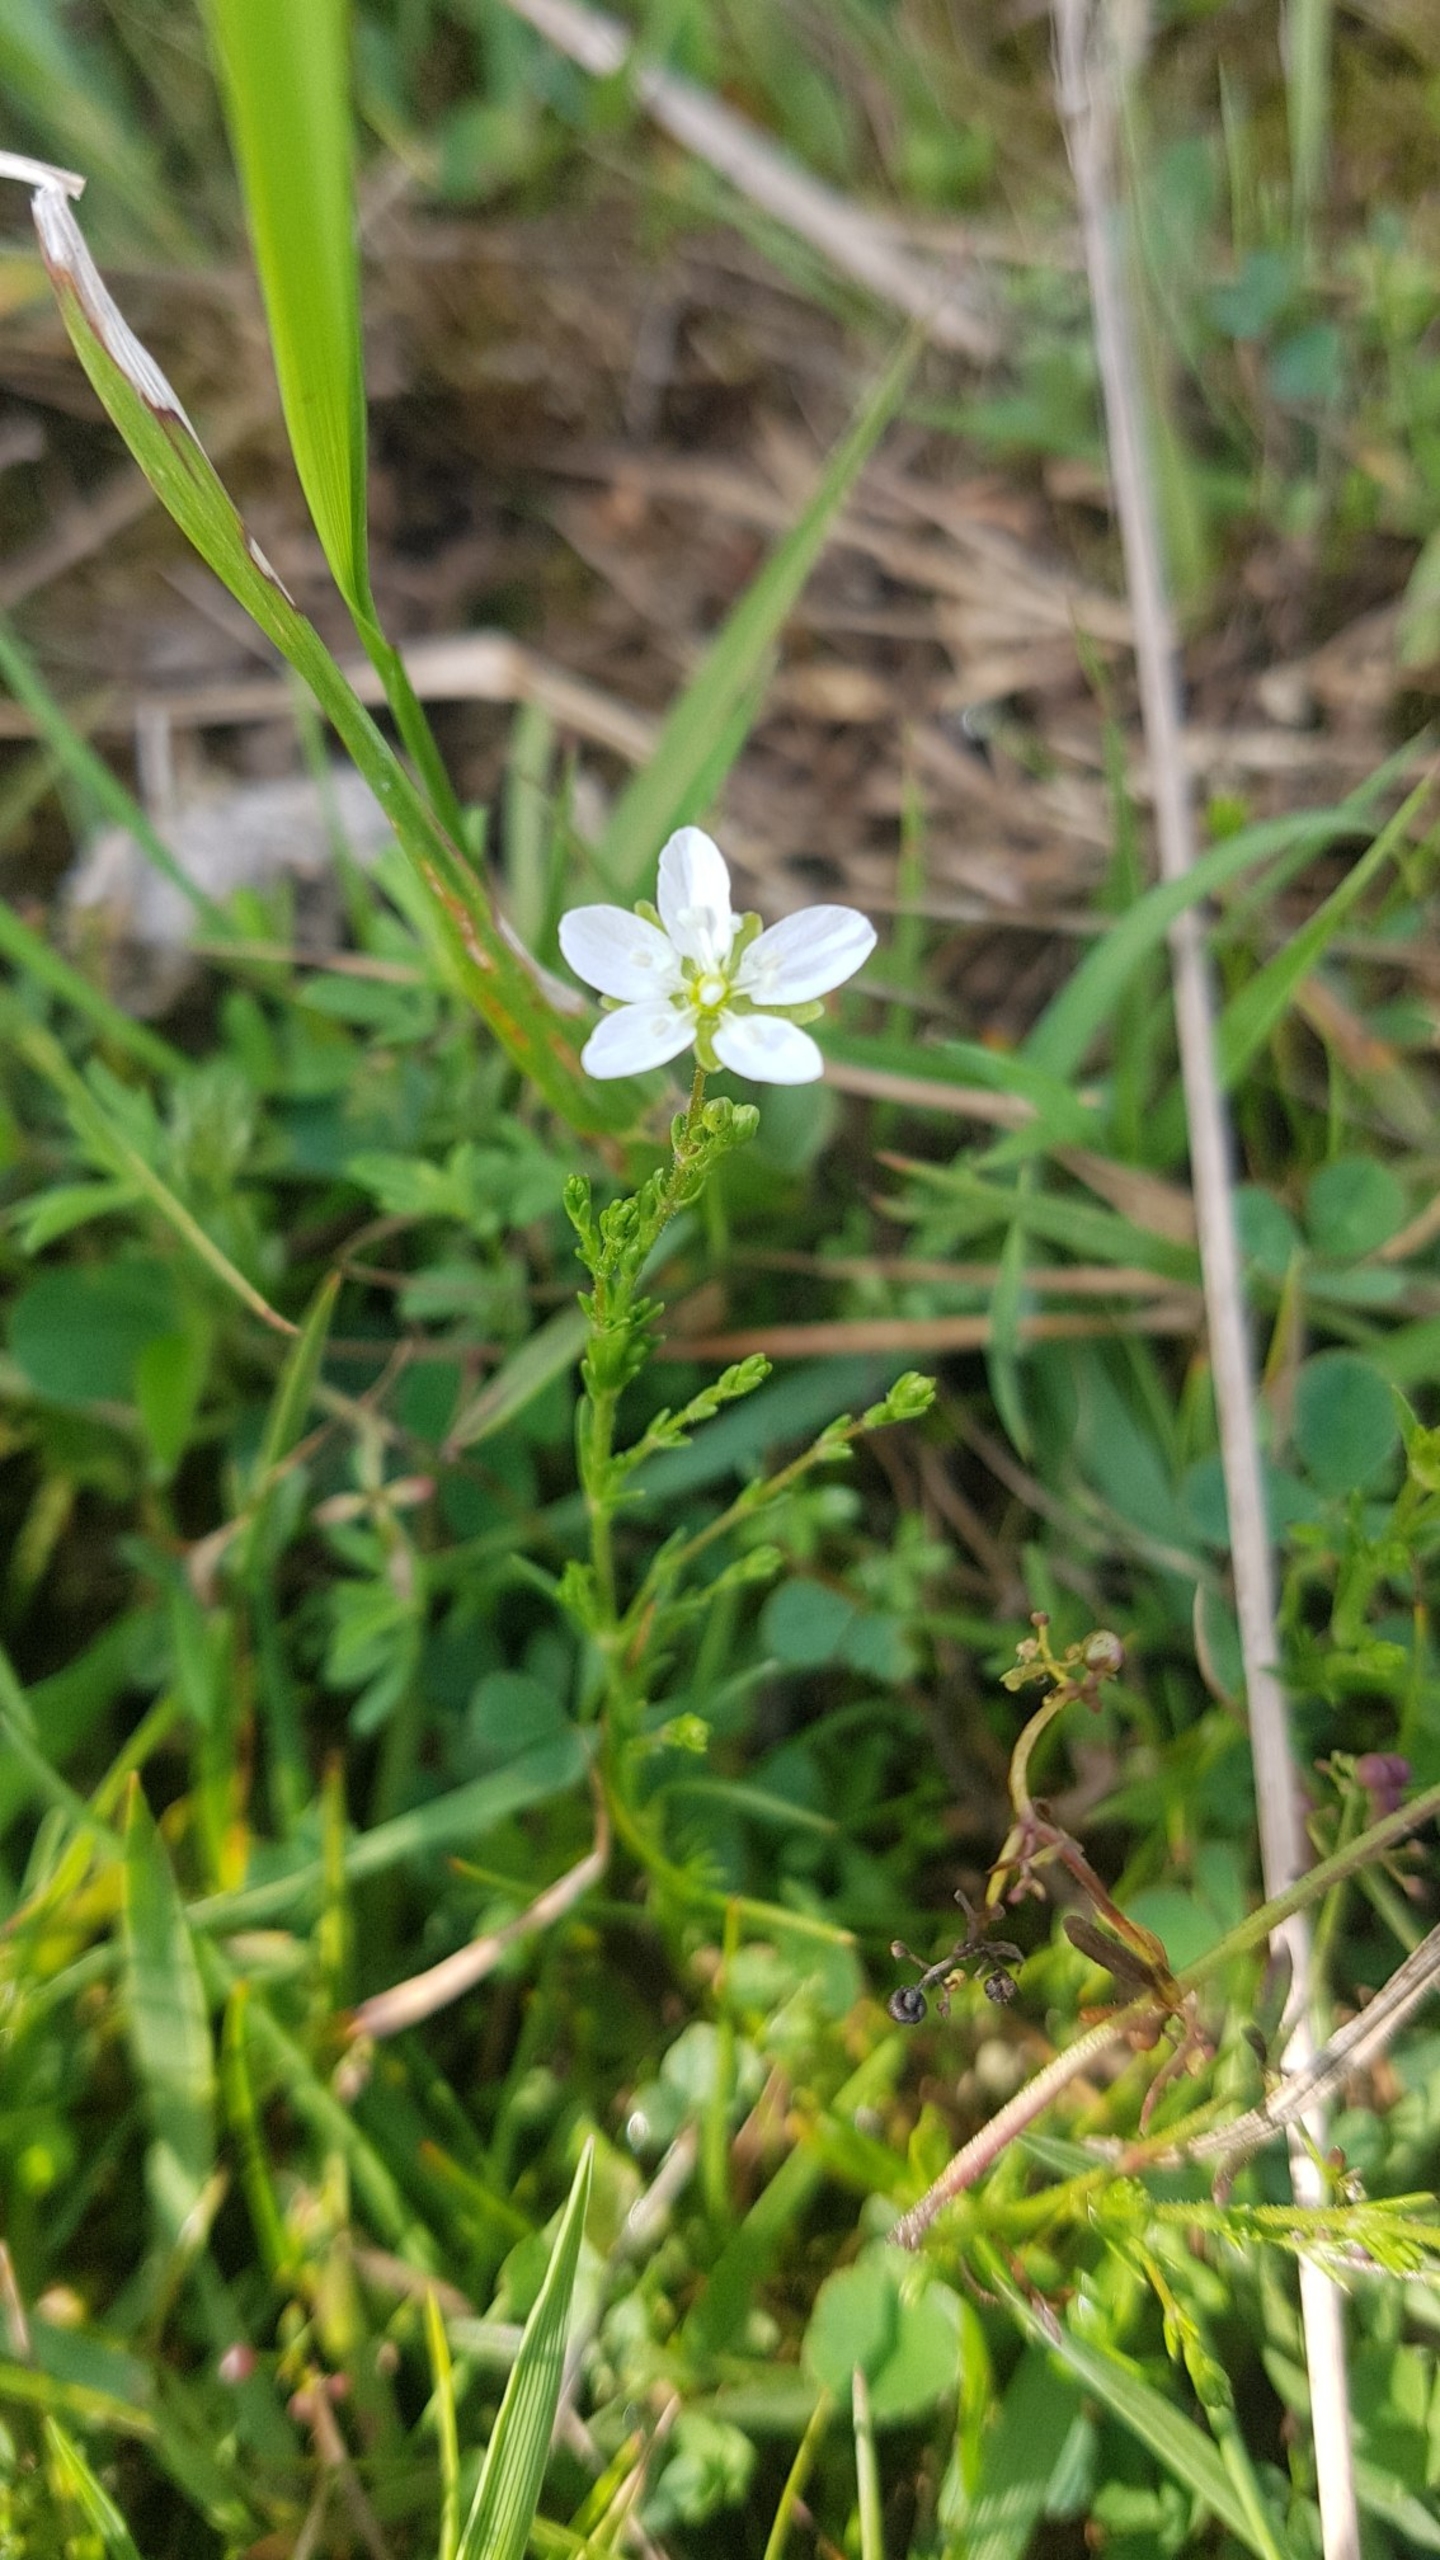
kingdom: Plantae
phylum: Tracheophyta
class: Magnoliopsida
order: Caryophyllales
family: Caryophyllaceae
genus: Sagina
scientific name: Sagina nodosa
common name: Knude-firling
